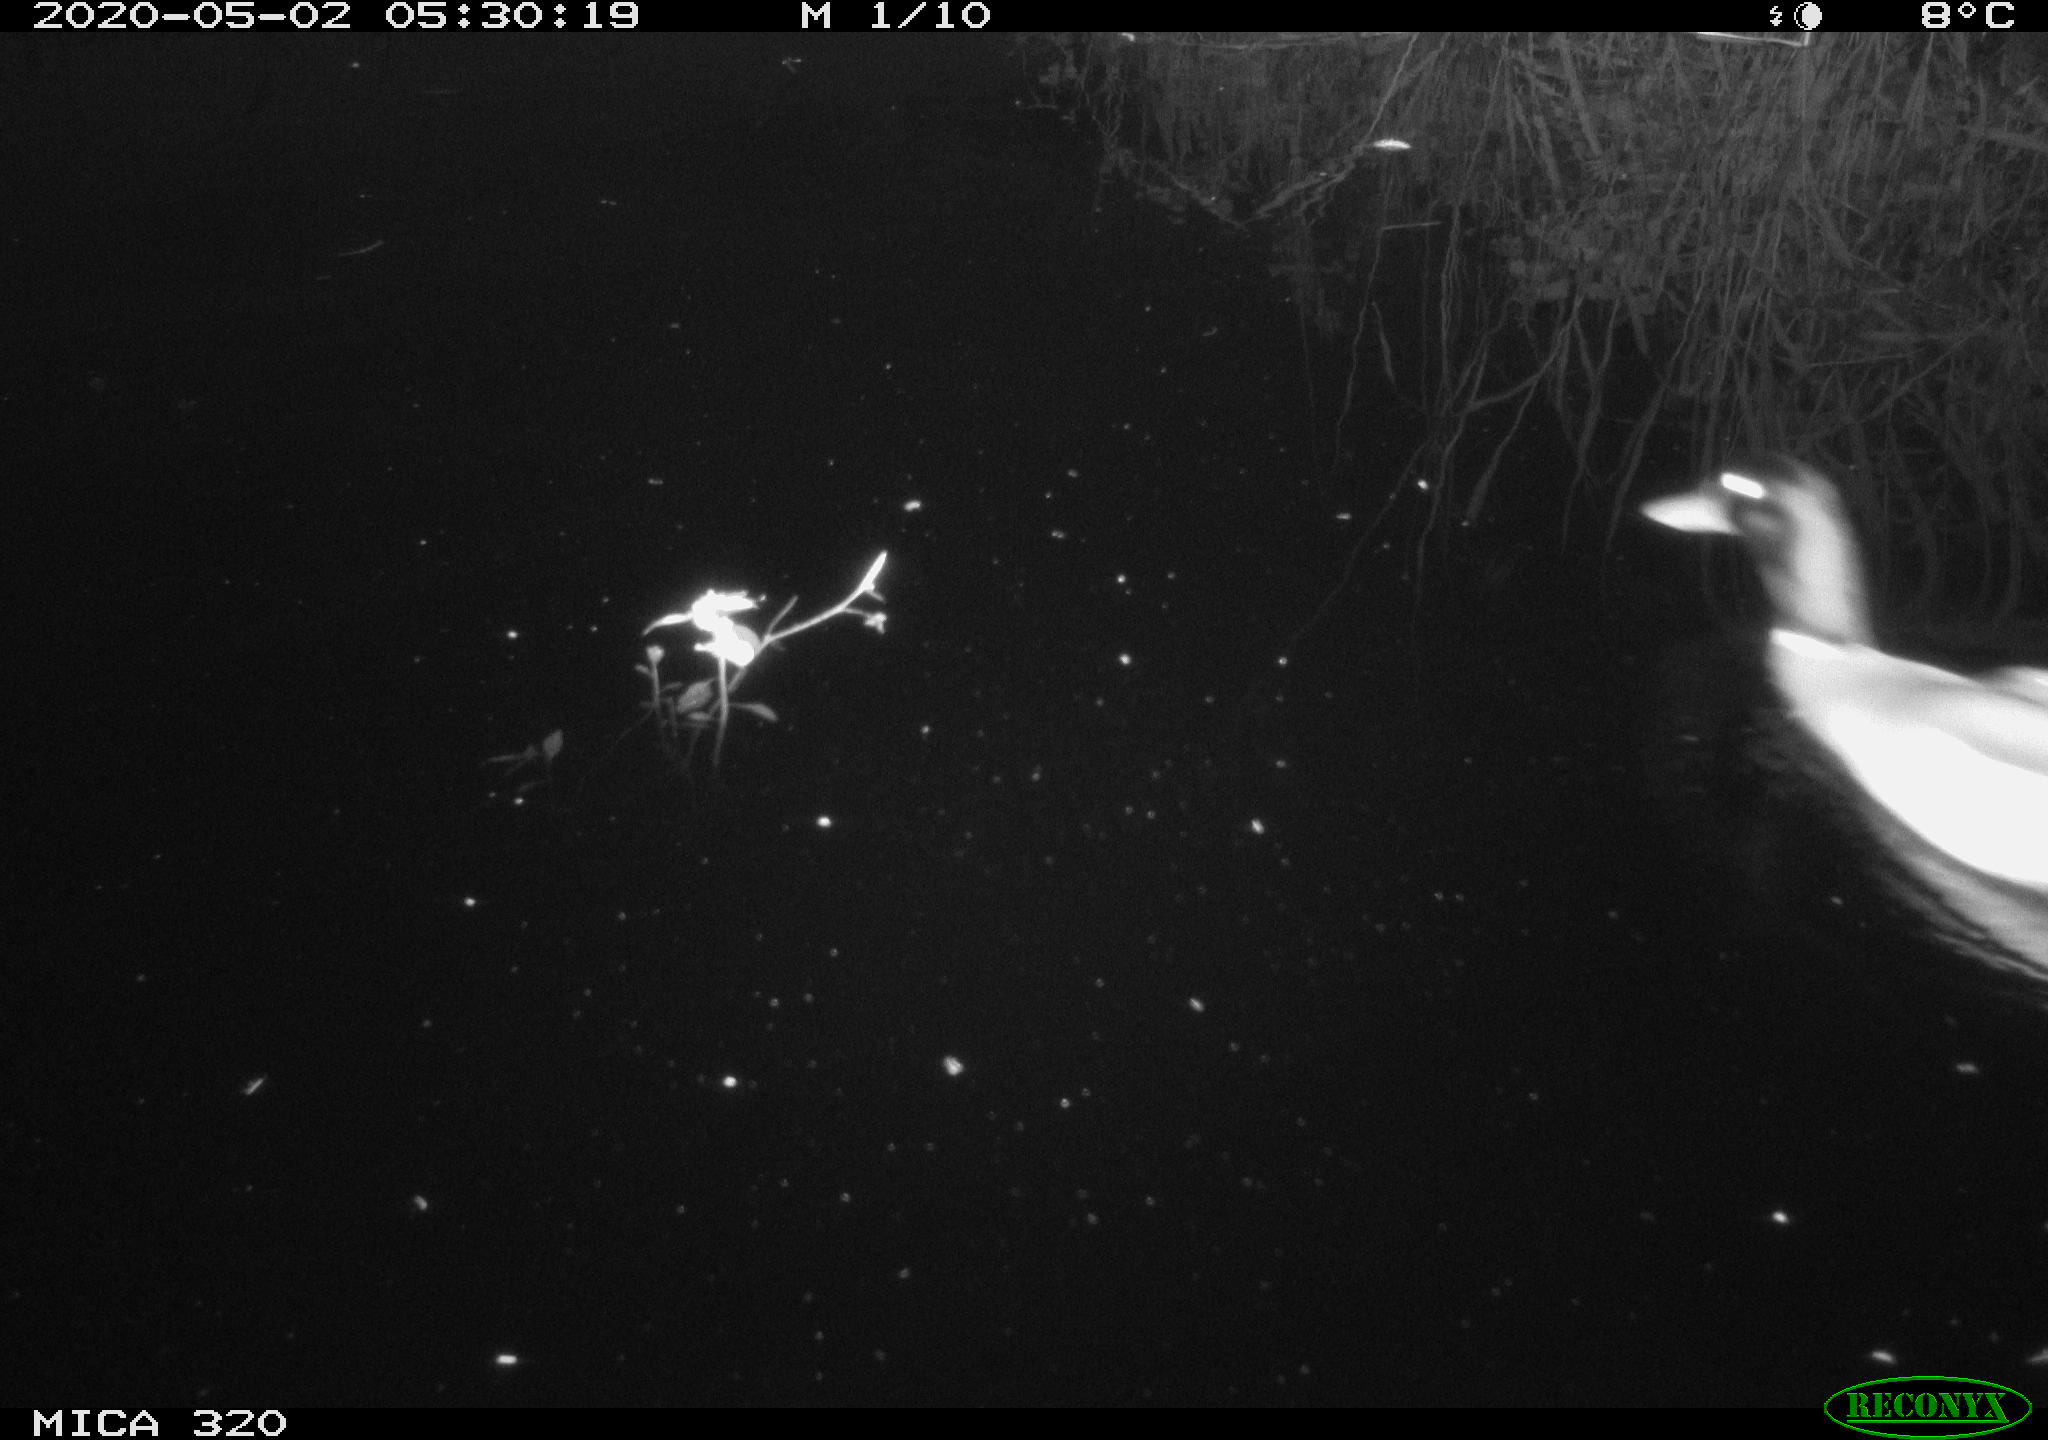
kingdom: Animalia
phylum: Chordata
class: Aves
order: Anseriformes
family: Anatidae
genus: Anas
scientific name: Anas platyrhynchos
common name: Mallard
